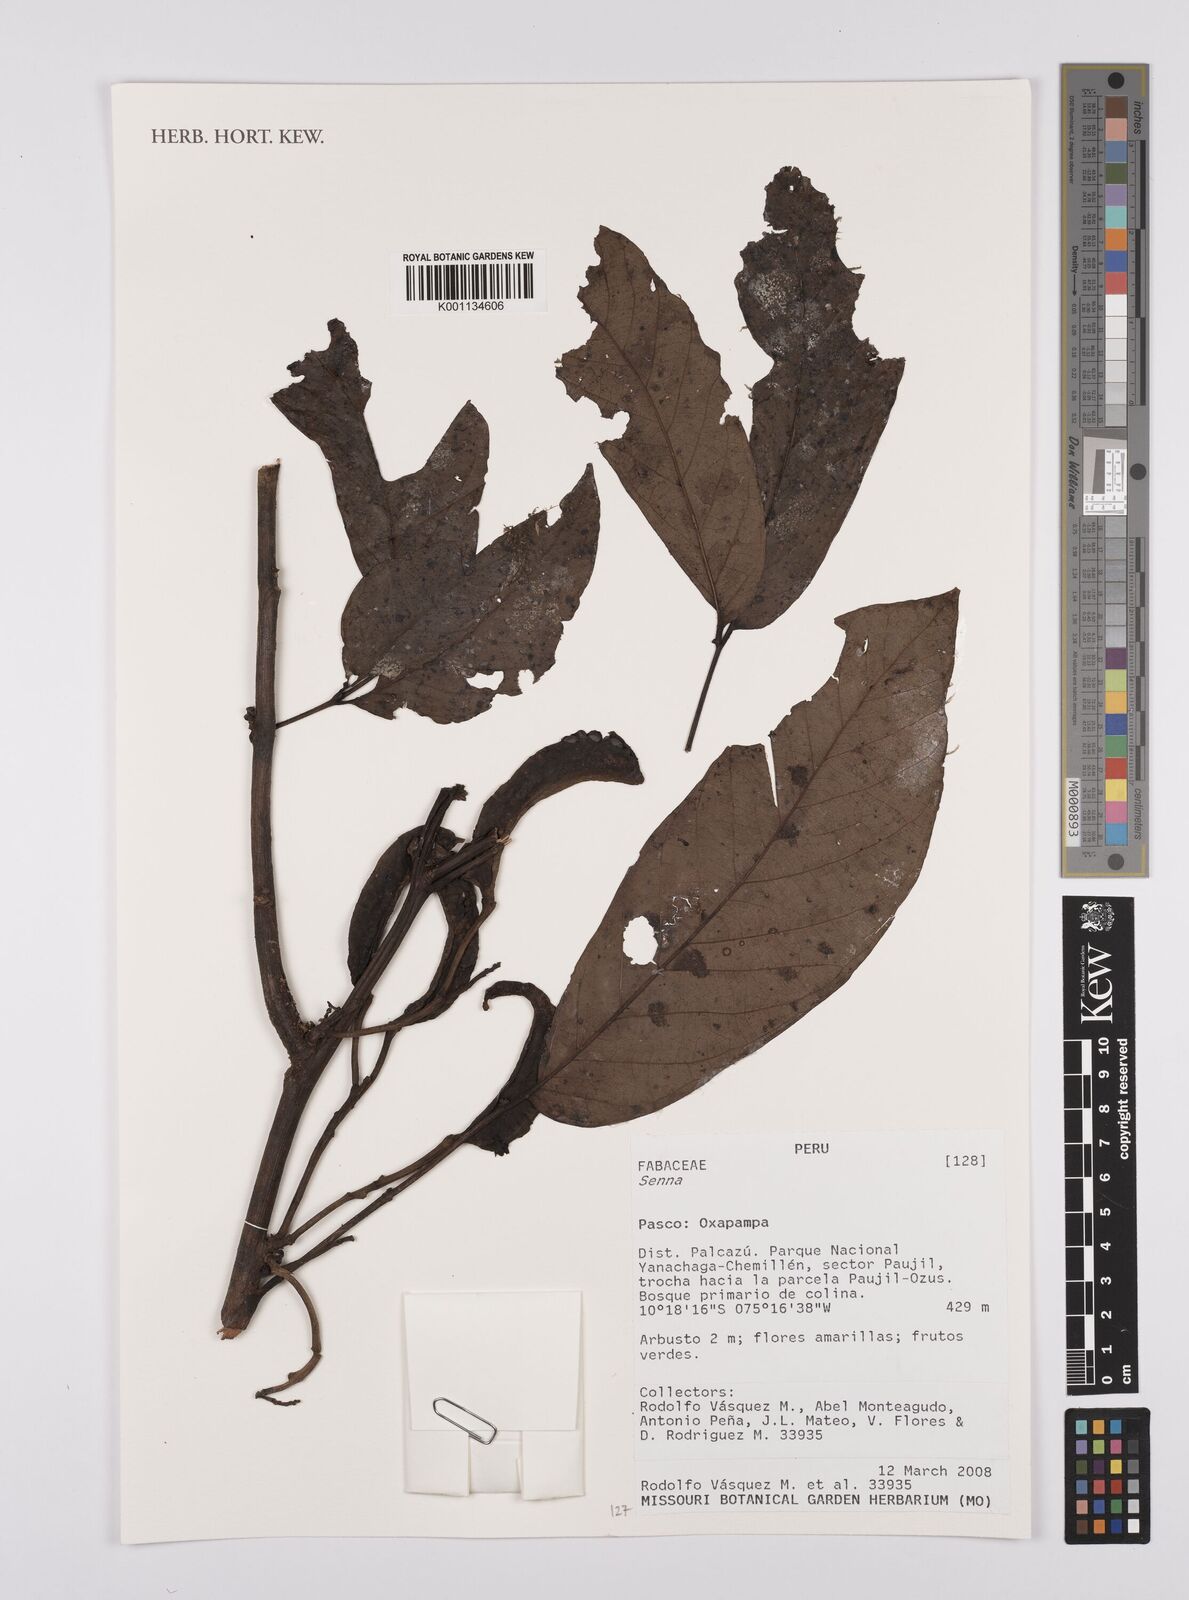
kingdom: Plantae
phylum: Tracheophyta
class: Magnoliopsida
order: Fabales
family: Fabaceae
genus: Senna
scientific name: Senna
